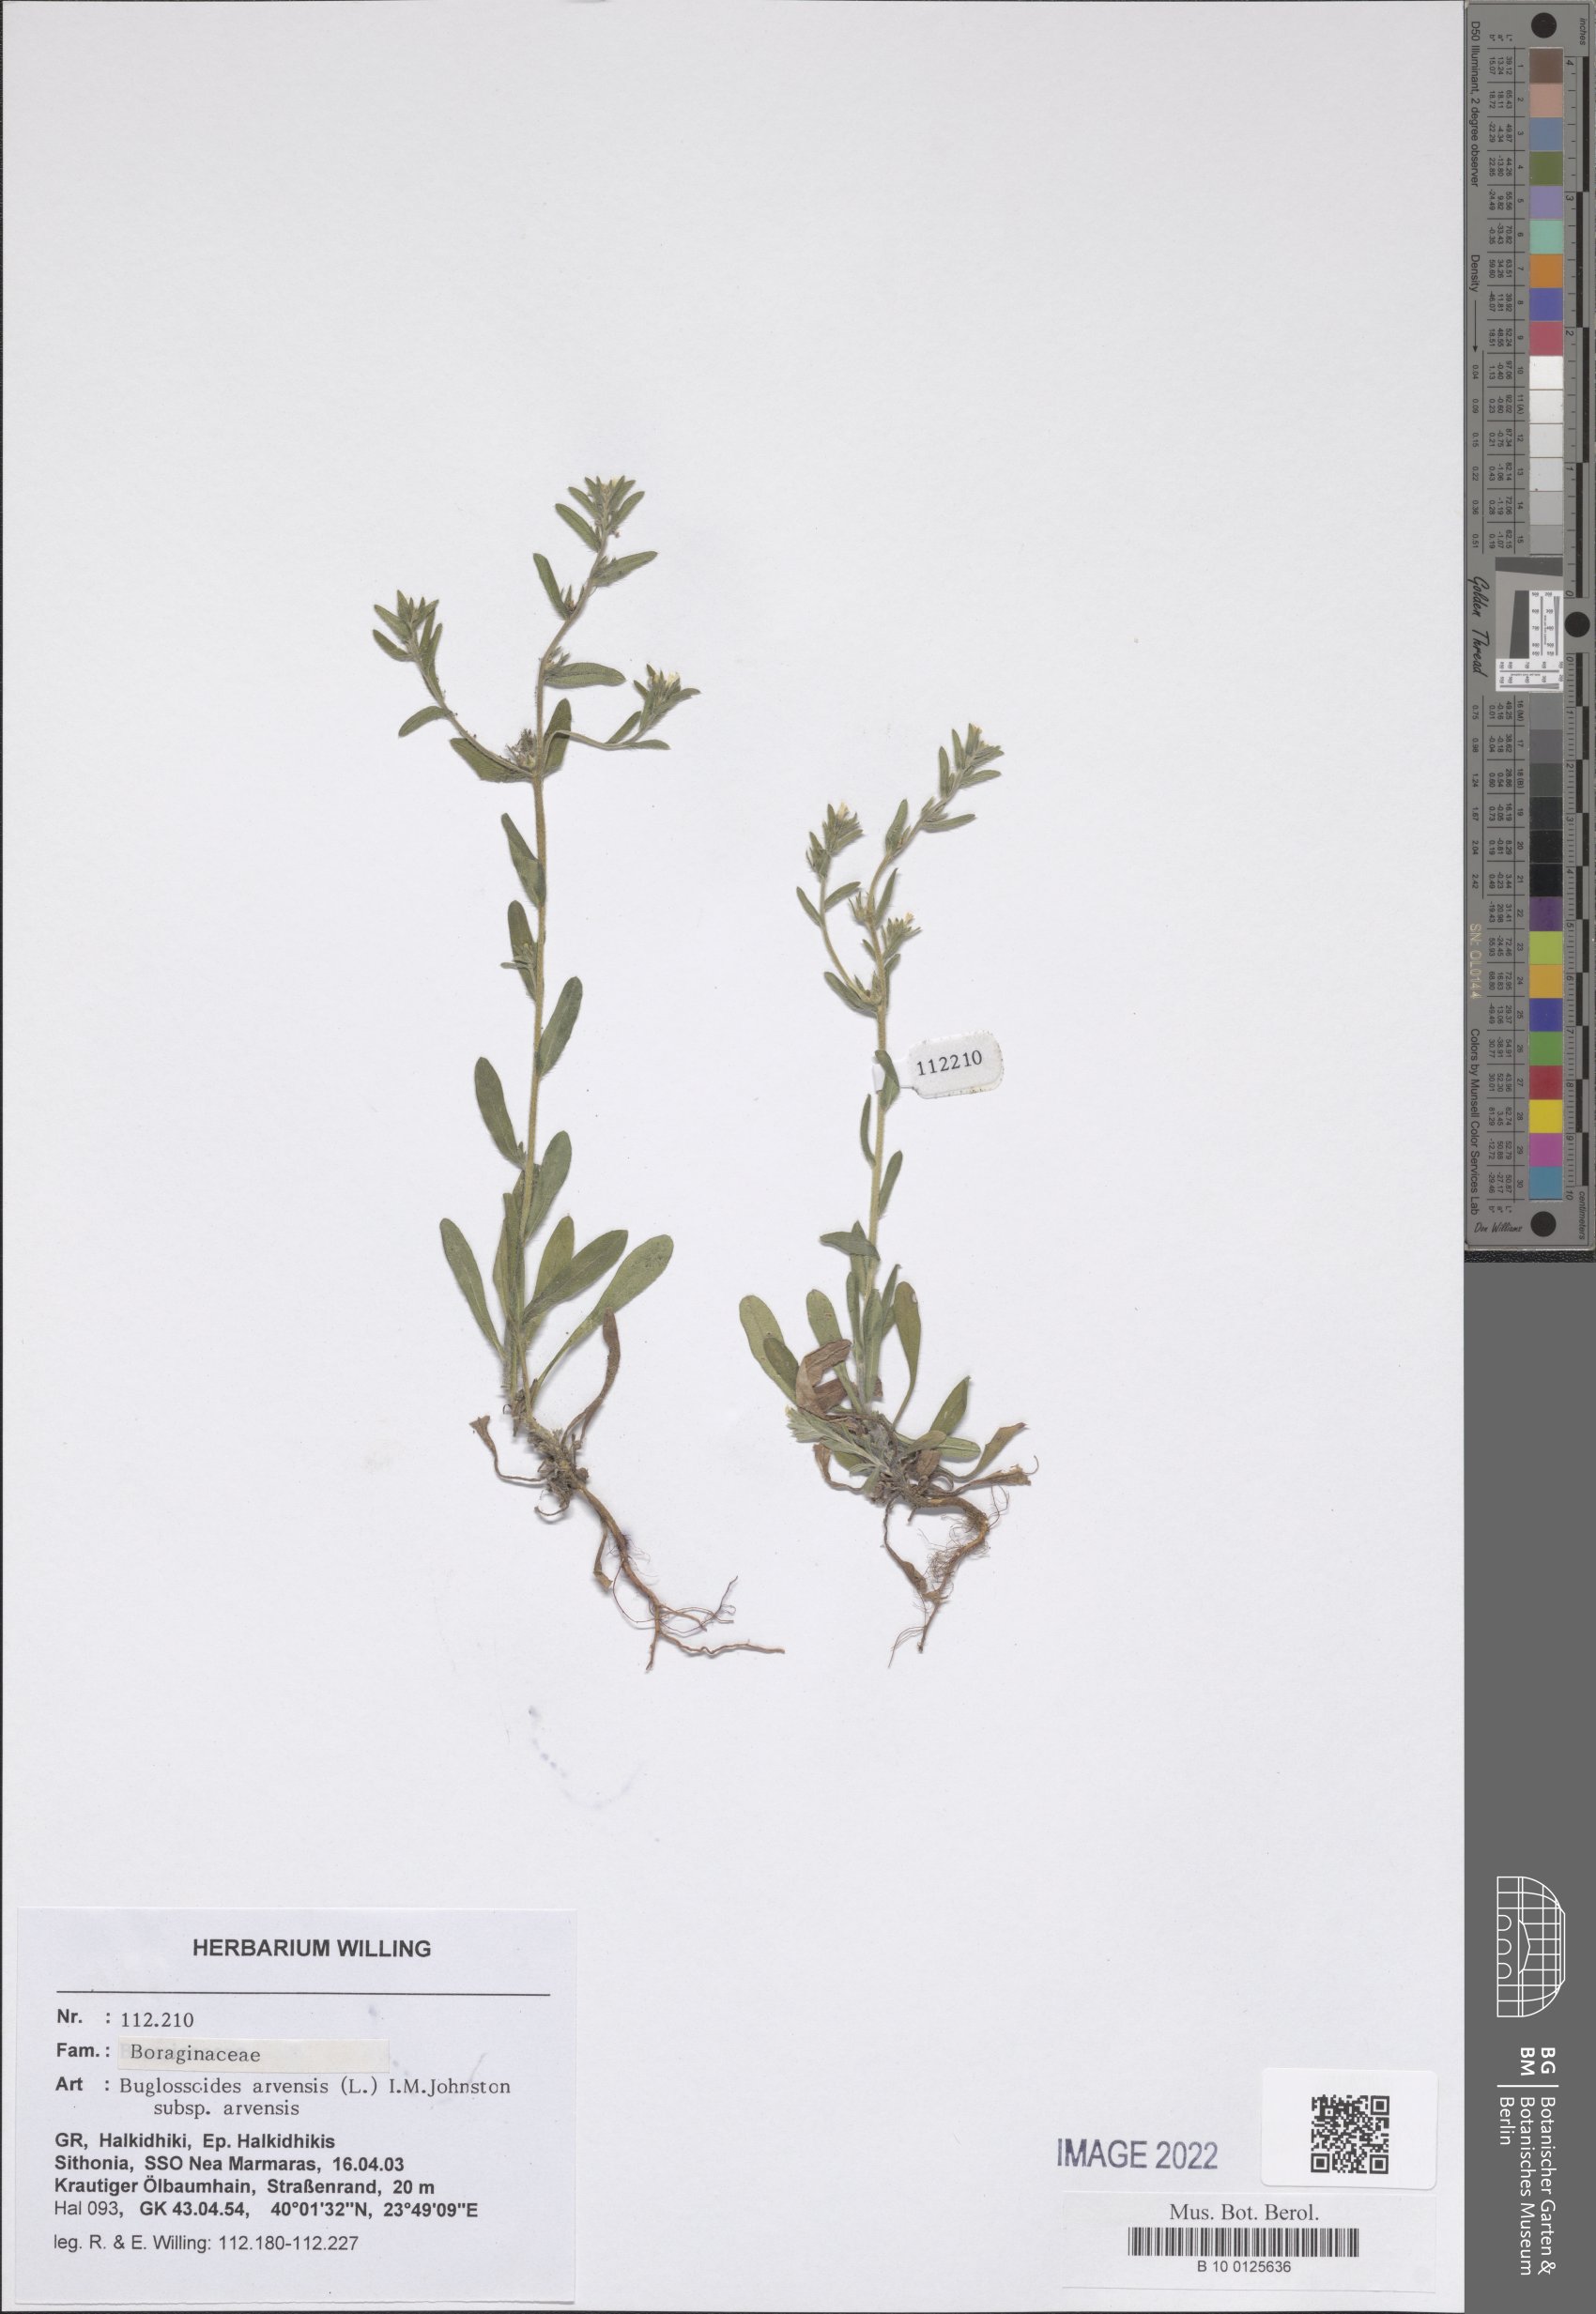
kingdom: Plantae
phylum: Tracheophyta
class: Magnoliopsida
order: Boraginales
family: Boraginaceae
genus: Buglossoides
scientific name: Buglossoides arvensis
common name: Corn gromwell
